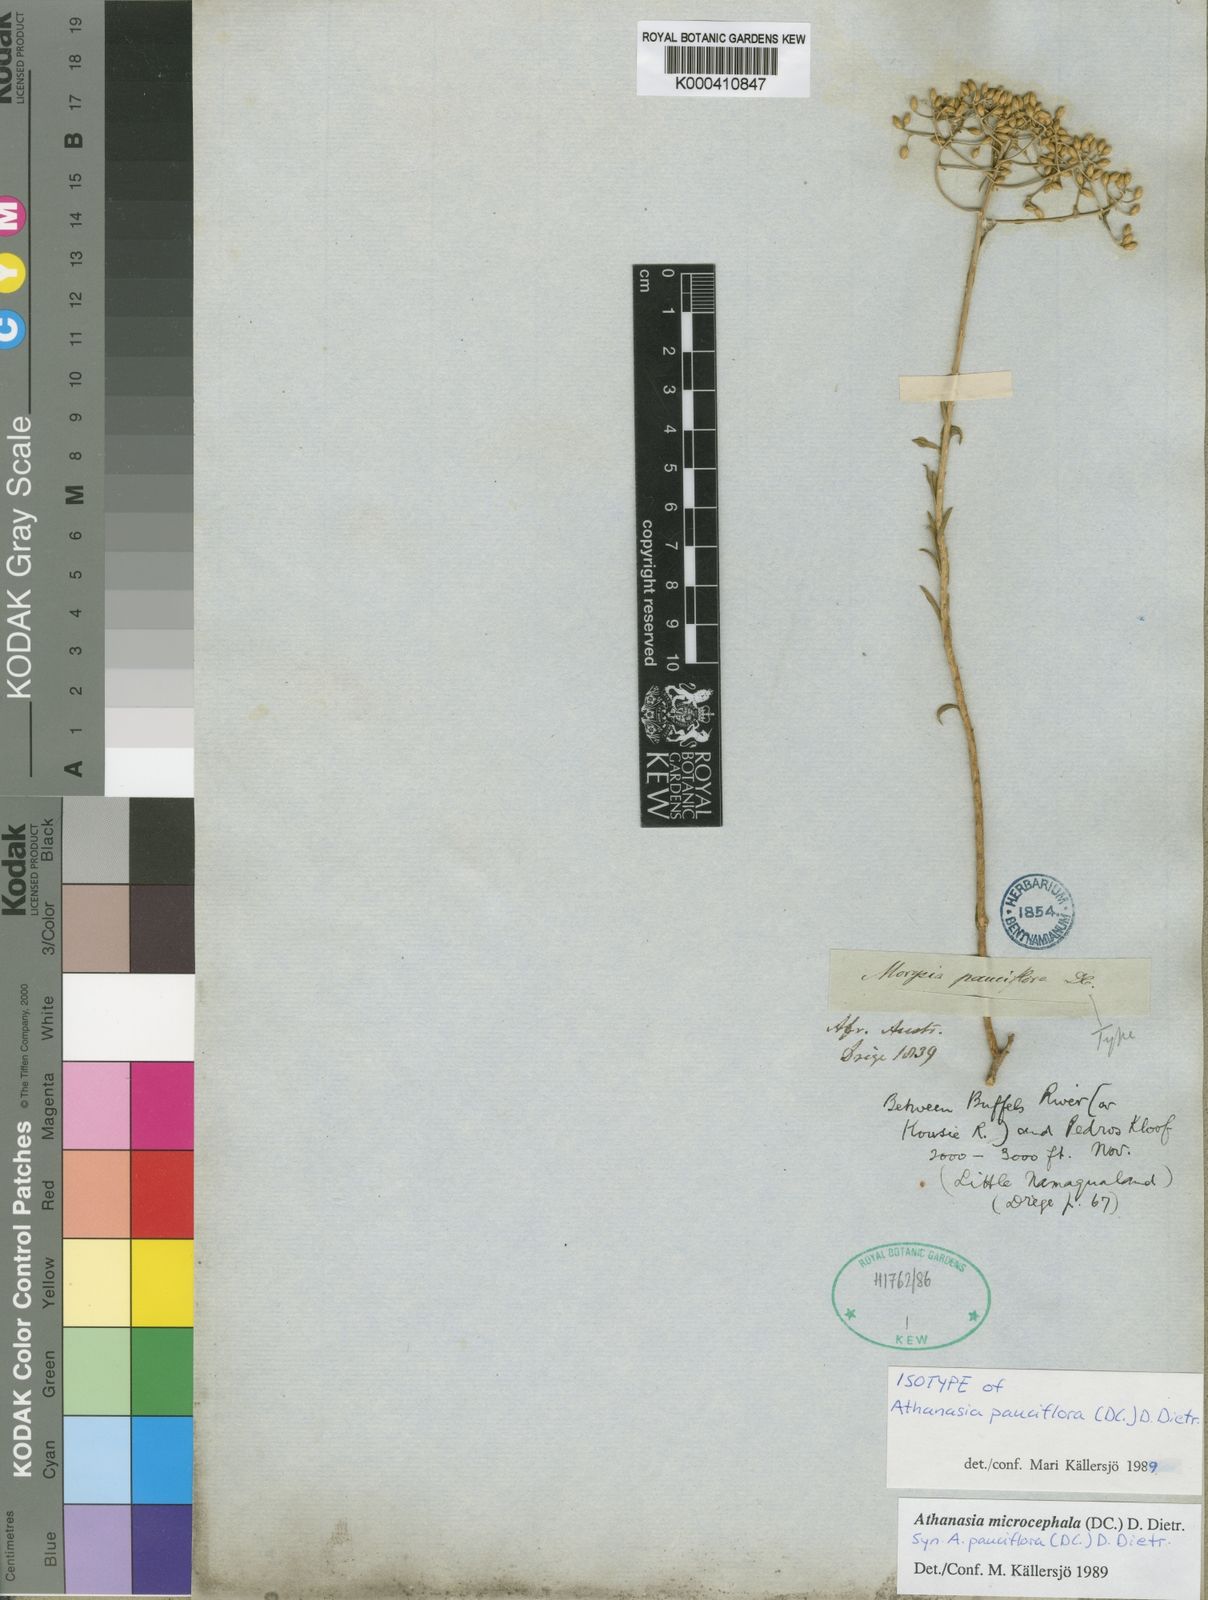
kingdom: Plantae
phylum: Tracheophyta
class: Magnoliopsida
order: Asterales
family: Asteraceae
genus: Athanasia
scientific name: Athanasia microcephala
